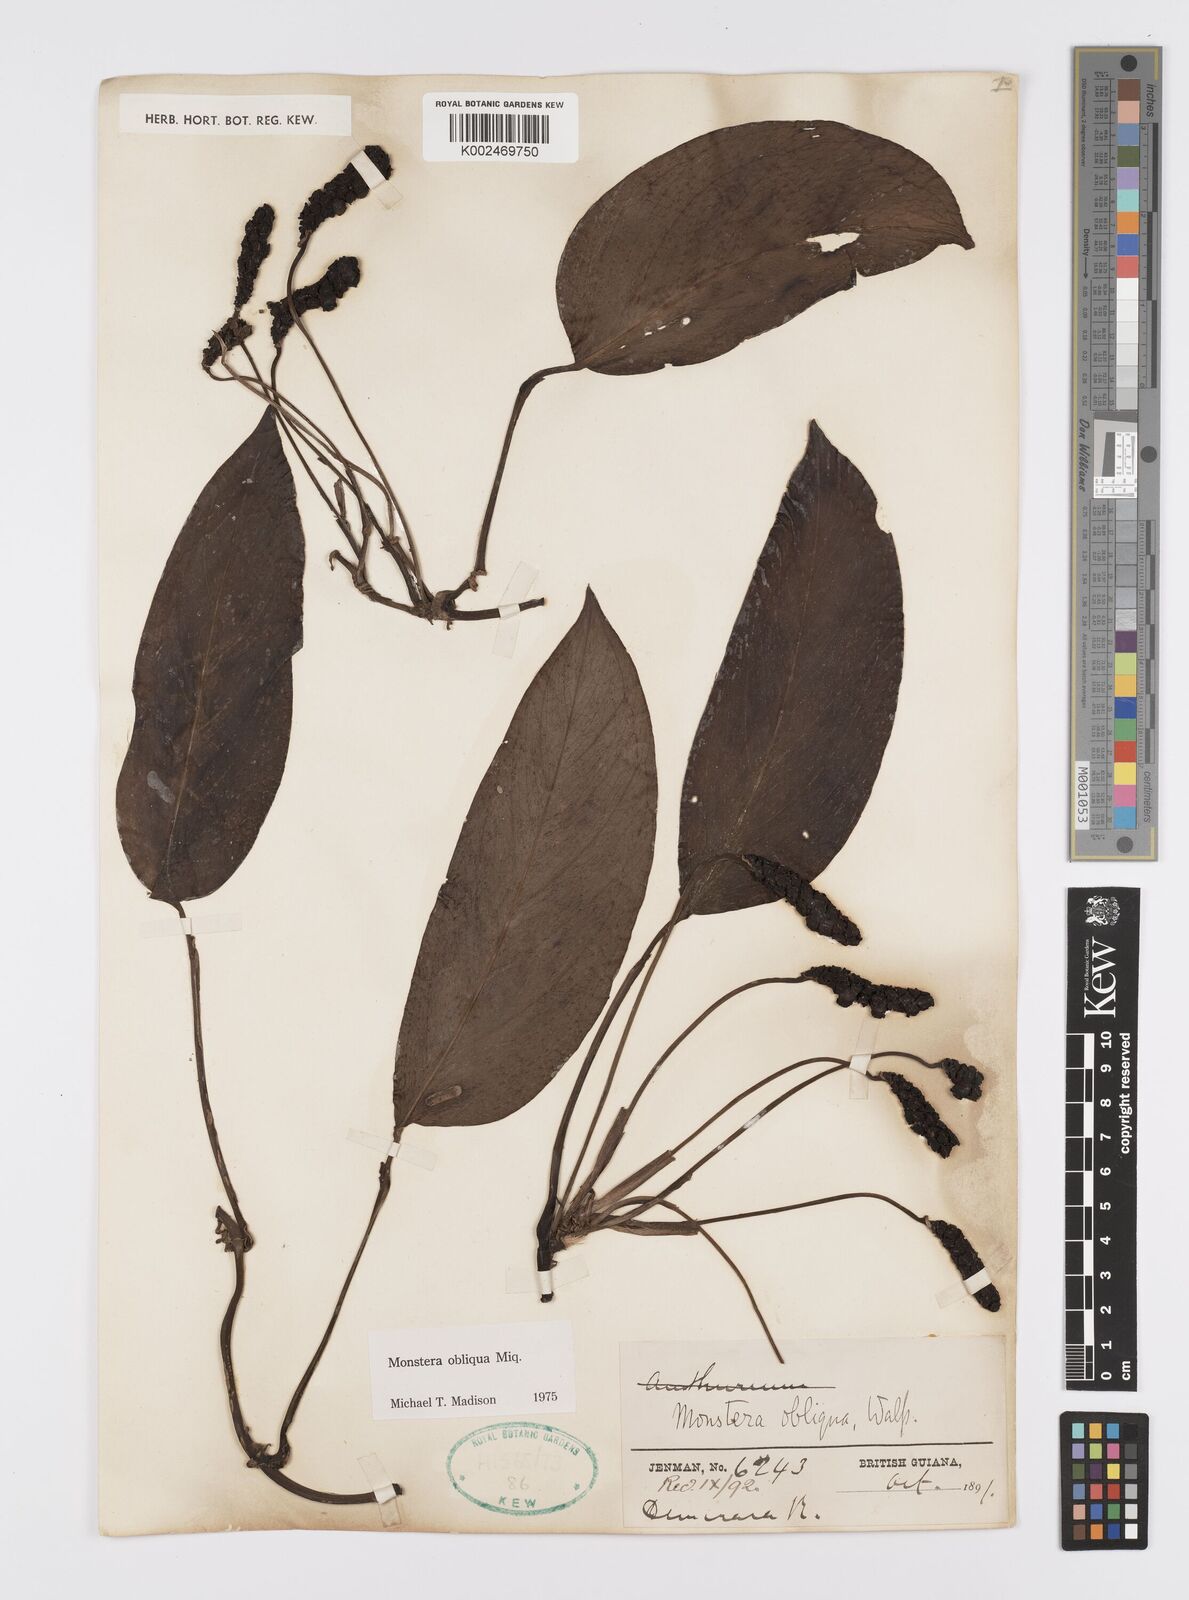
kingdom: Plantae
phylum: Tracheophyta
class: Liliopsida
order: Alismatales
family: Araceae
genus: Monstera
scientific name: Monstera obliqua
